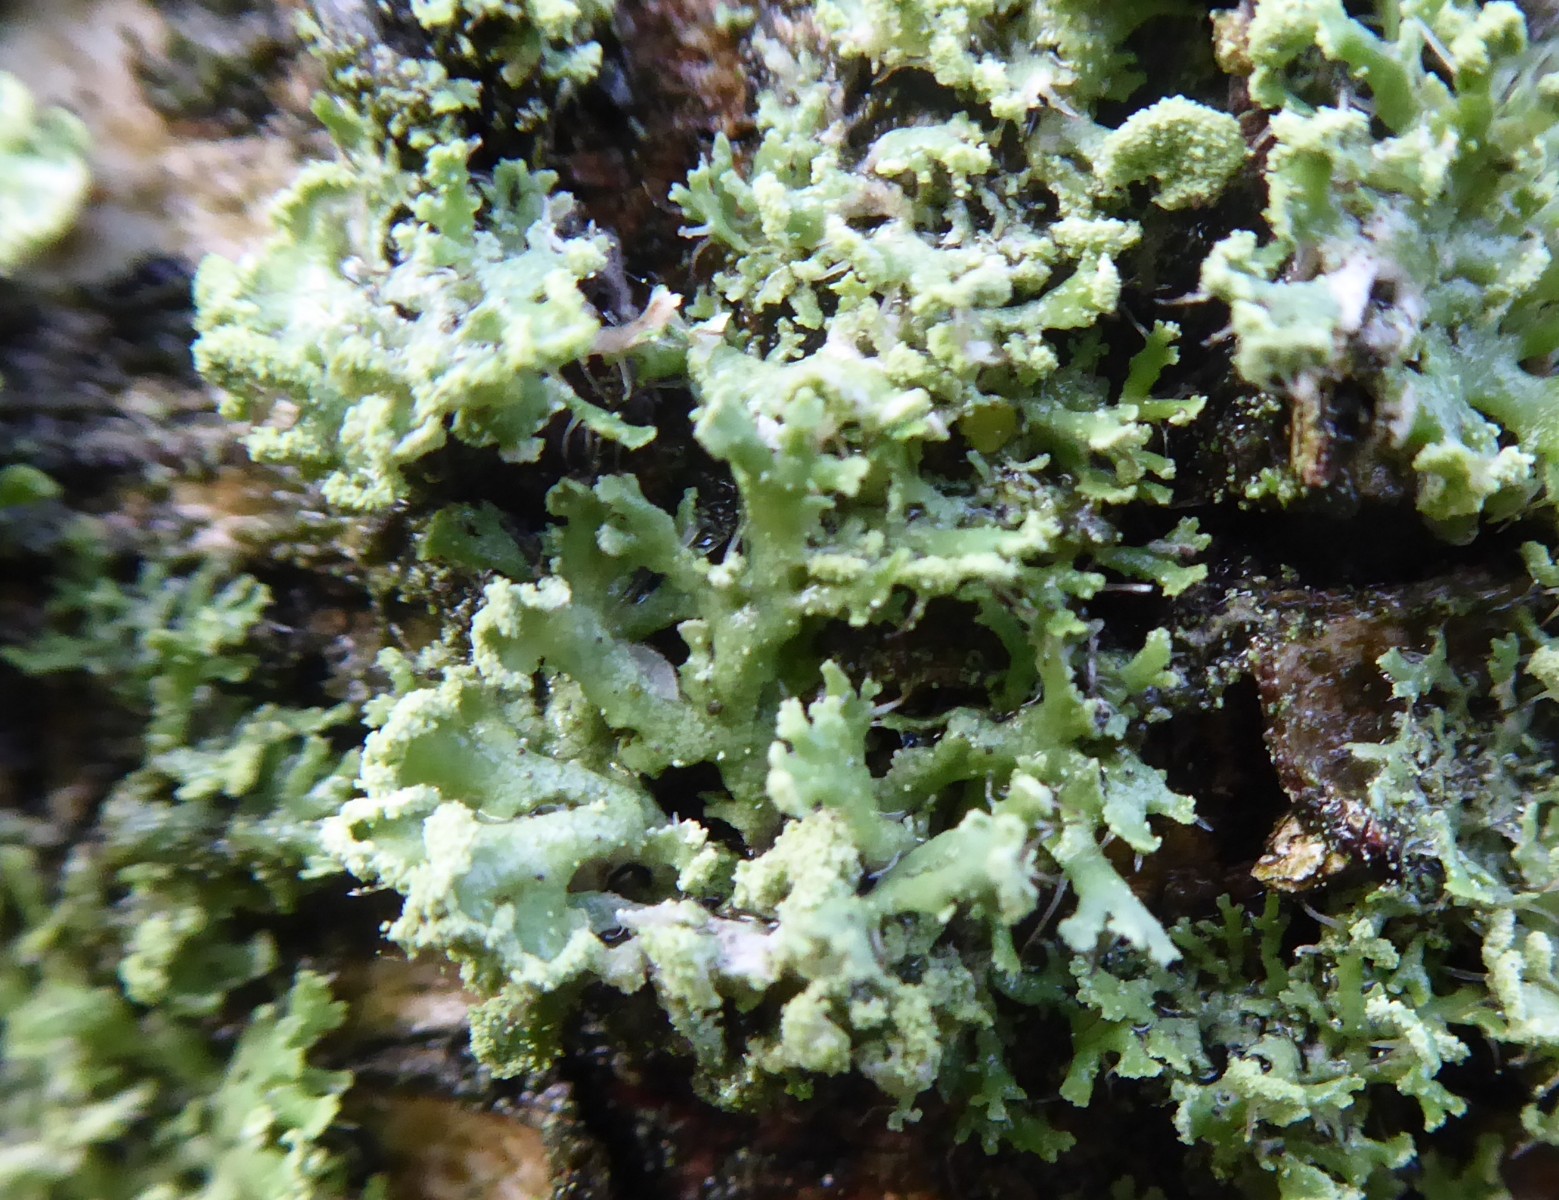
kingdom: Fungi
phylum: Ascomycota
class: Lecanoromycetes
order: Caliciales
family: Physciaceae
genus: Physcia
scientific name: Physcia tenella
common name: spæd rosetlav
